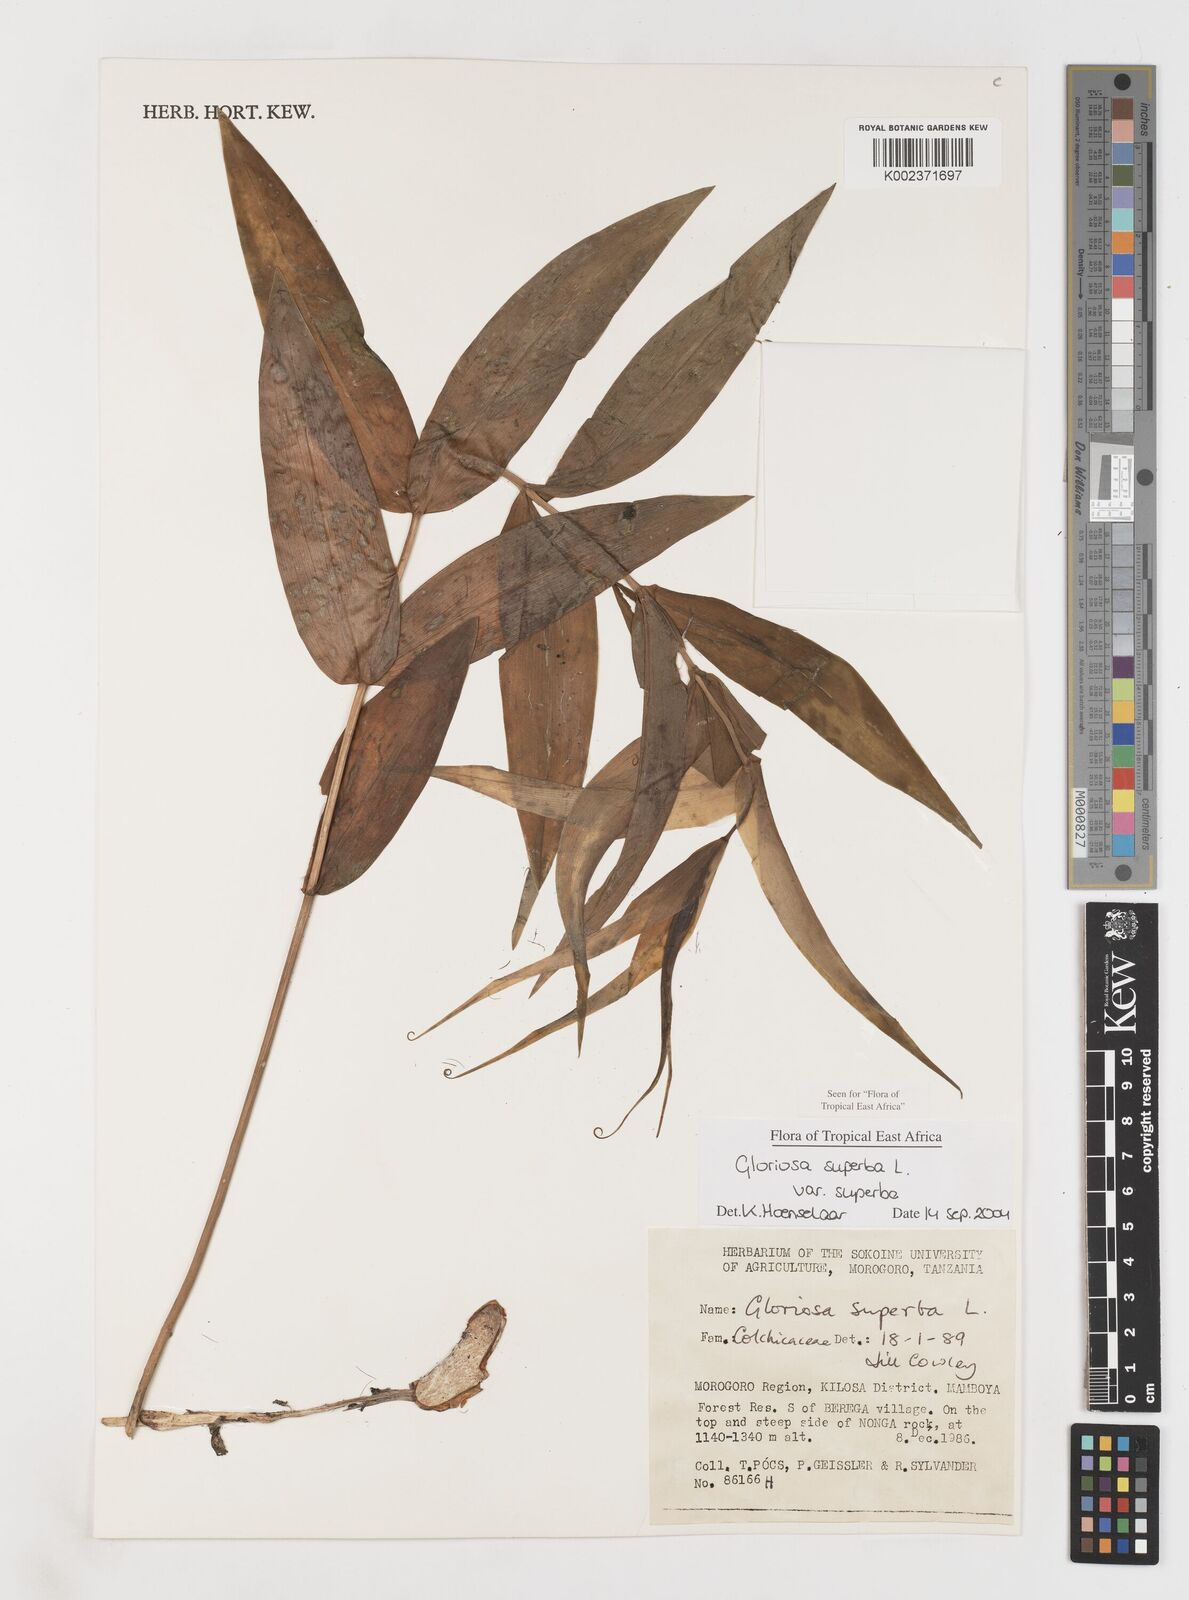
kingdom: Plantae
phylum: Tracheophyta
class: Liliopsida
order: Liliales
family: Colchicaceae
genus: Gloriosa
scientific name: Gloriosa simplex
